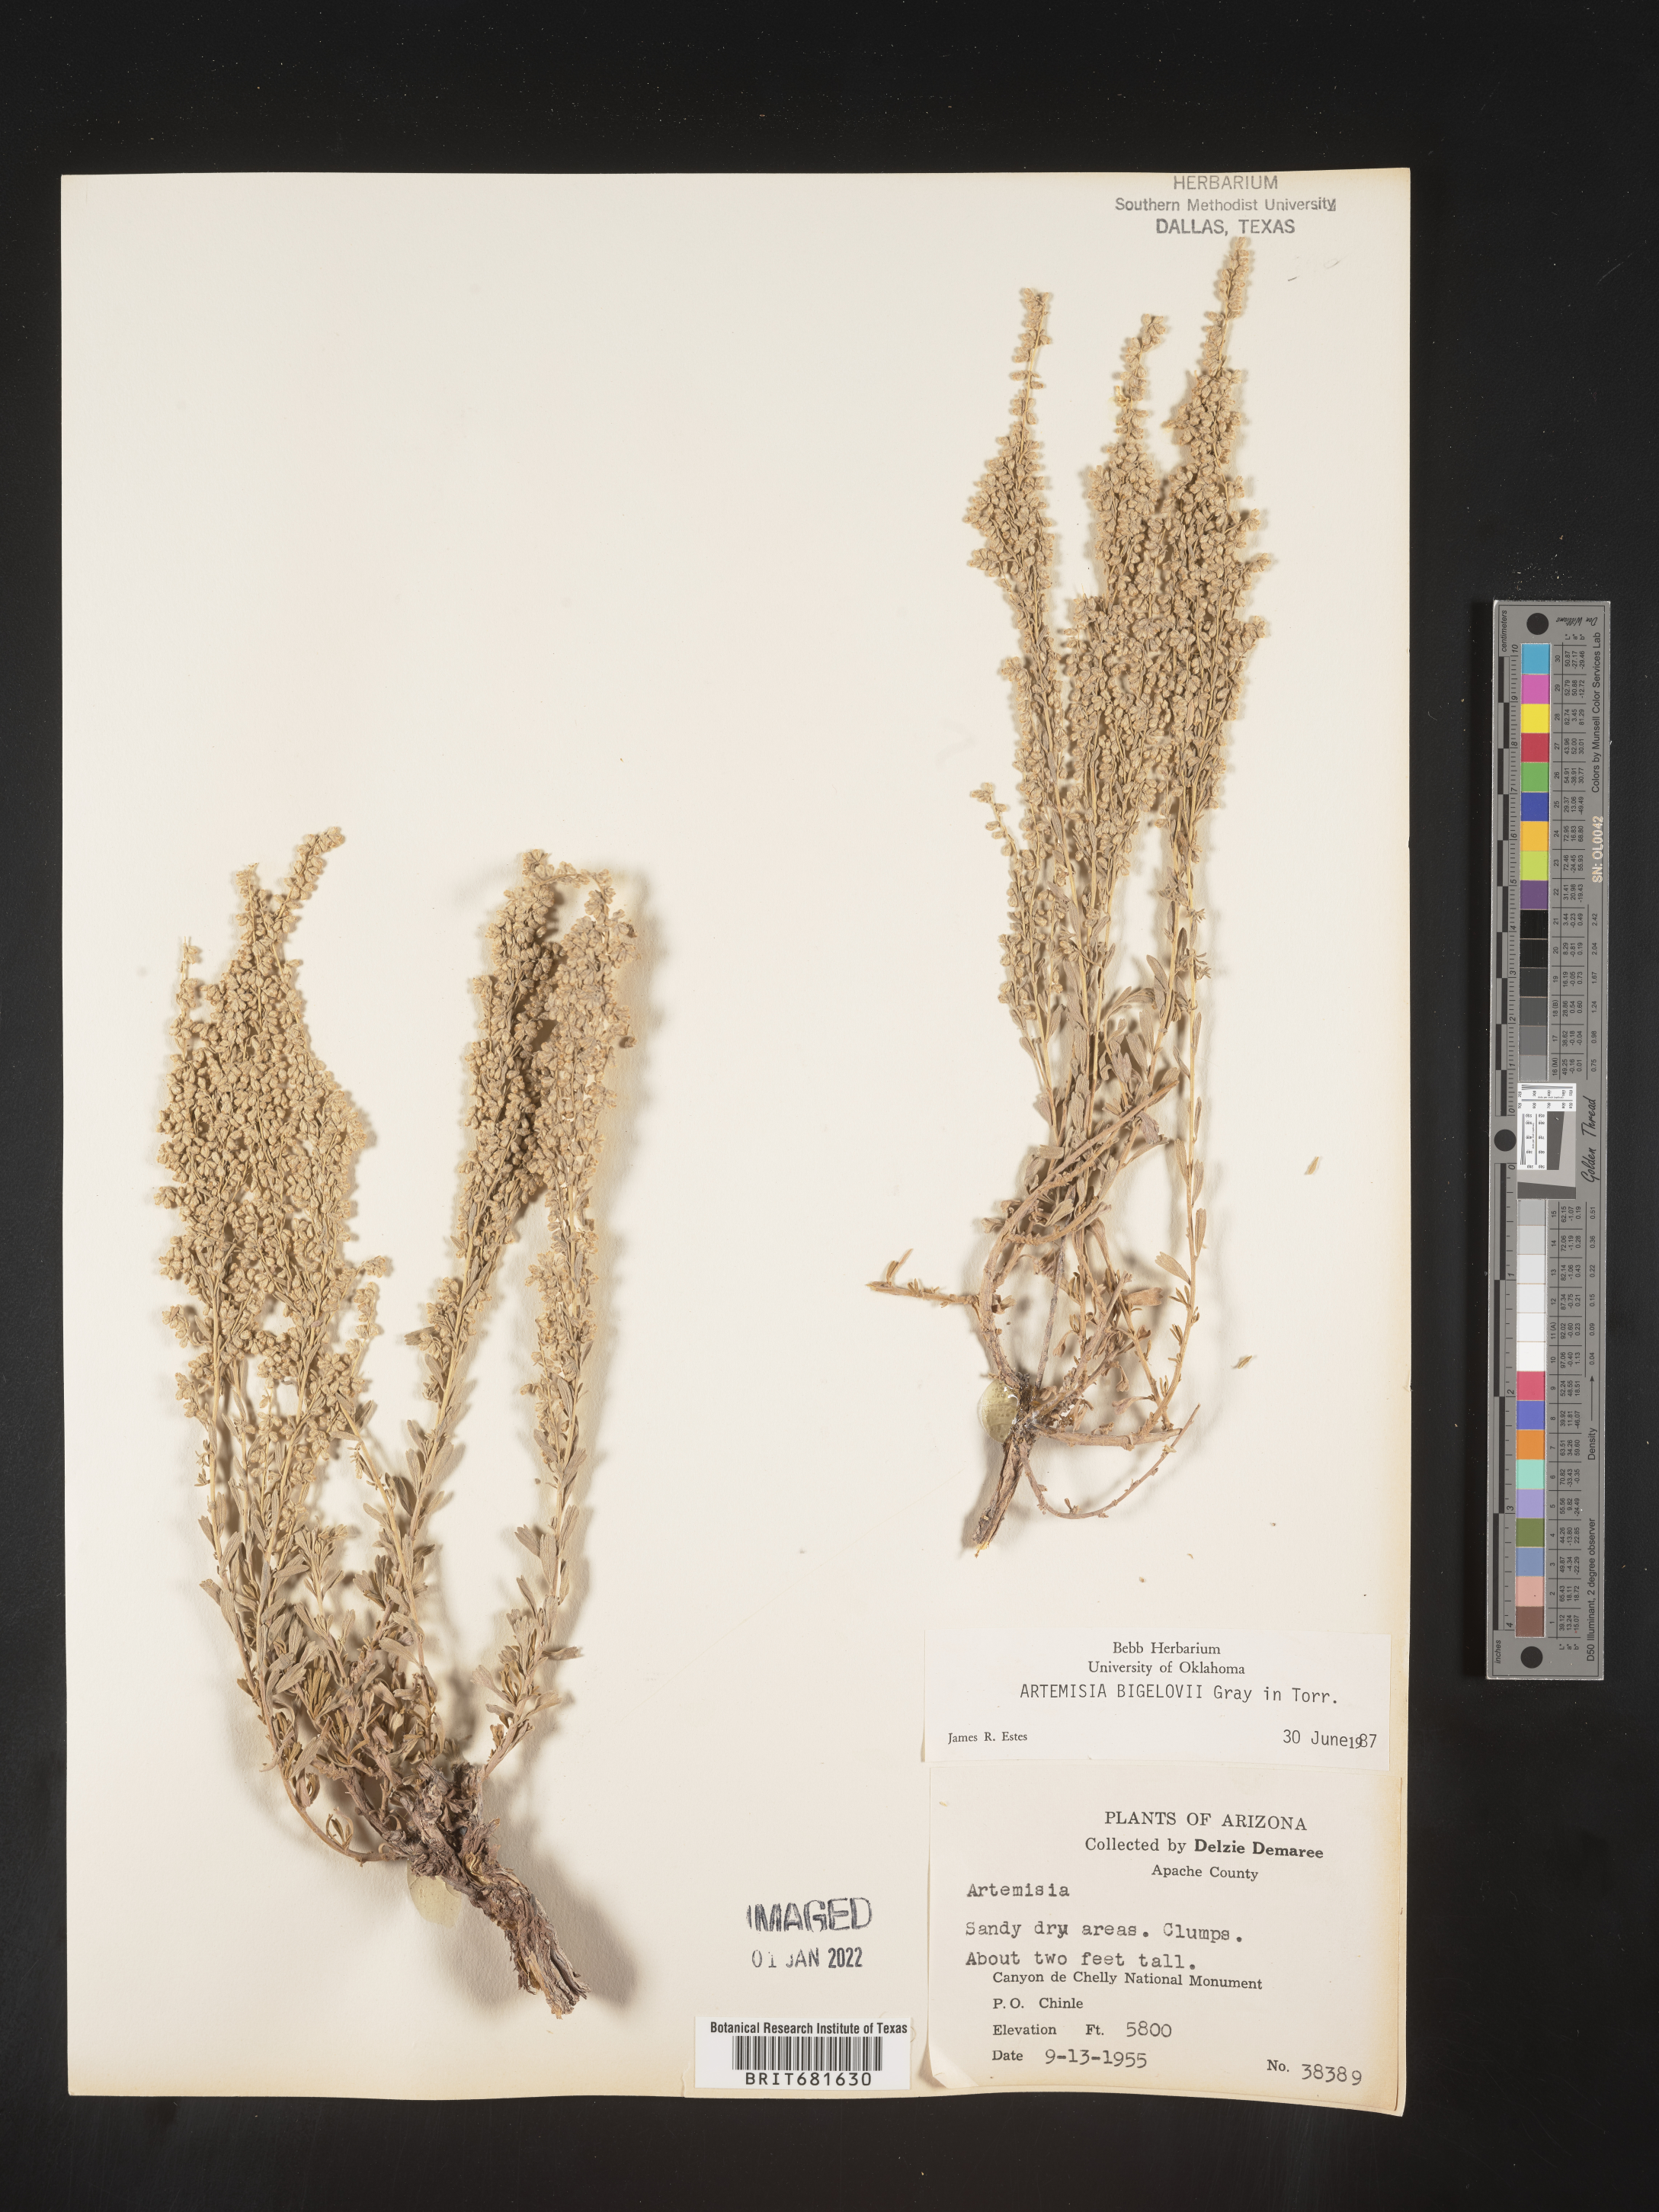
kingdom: Plantae
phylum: Tracheophyta
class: Magnoliopsida
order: Asterales
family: Asteraceae
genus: Artemisia
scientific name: Artemisia bigelovii
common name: Bigelow sagebrush
